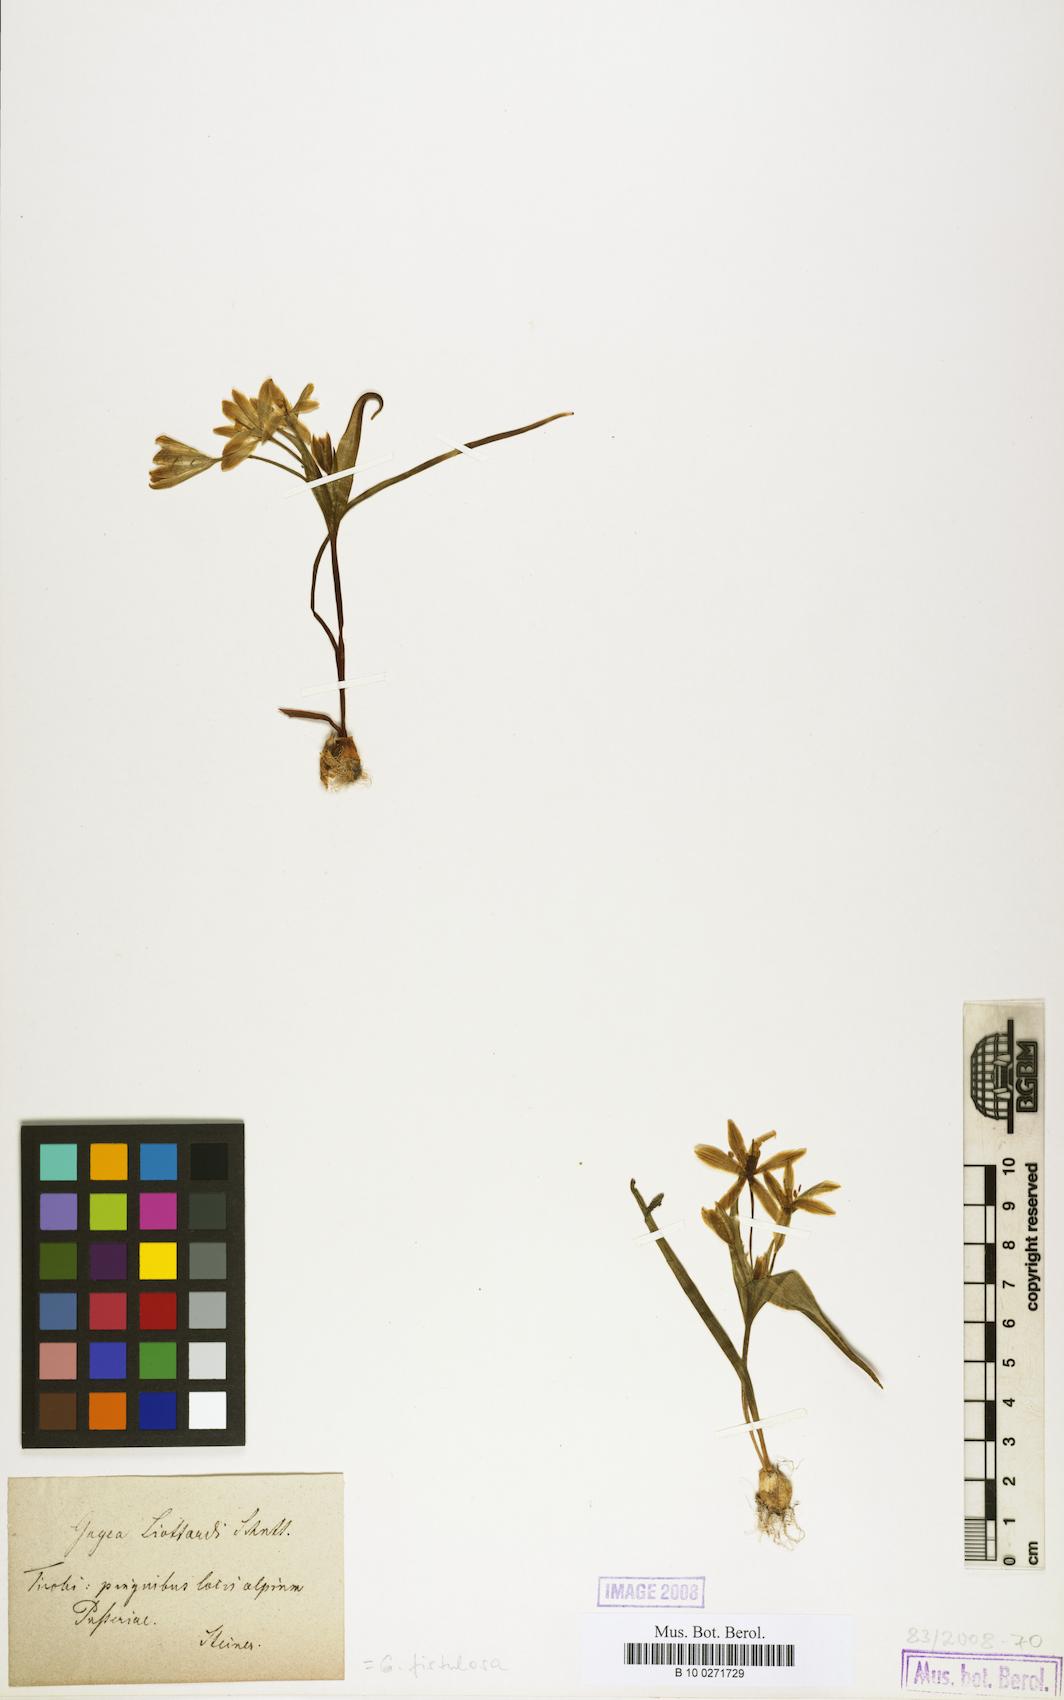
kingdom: Plantae
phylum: Tracheophyta
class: Liliopsida
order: Liliales
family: Liliaceae
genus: Gagea
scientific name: Gagea bohemica
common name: Early star-of-bethlehem
